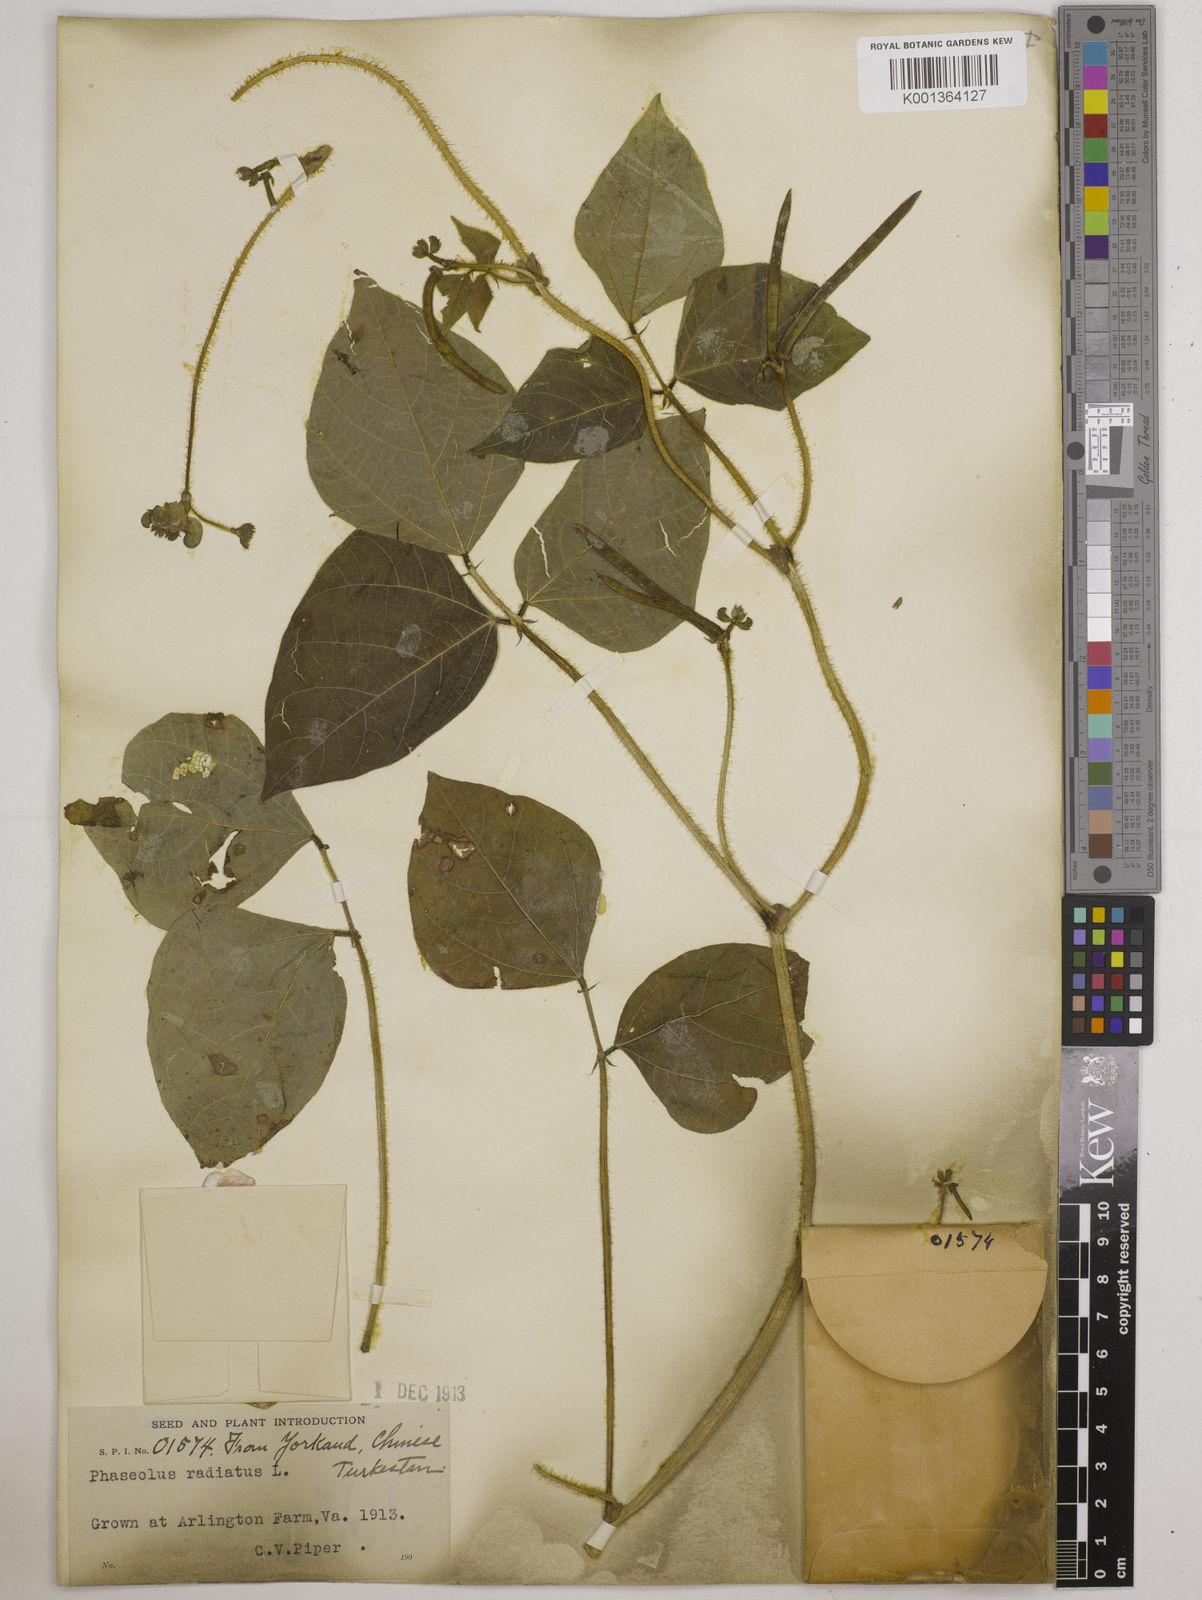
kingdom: Plantae
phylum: Tracheophyta
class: Magnoliopsida
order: Fabales
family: Fabaceae
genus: Vigna
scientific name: Vigna radiata
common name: Mung-bean
